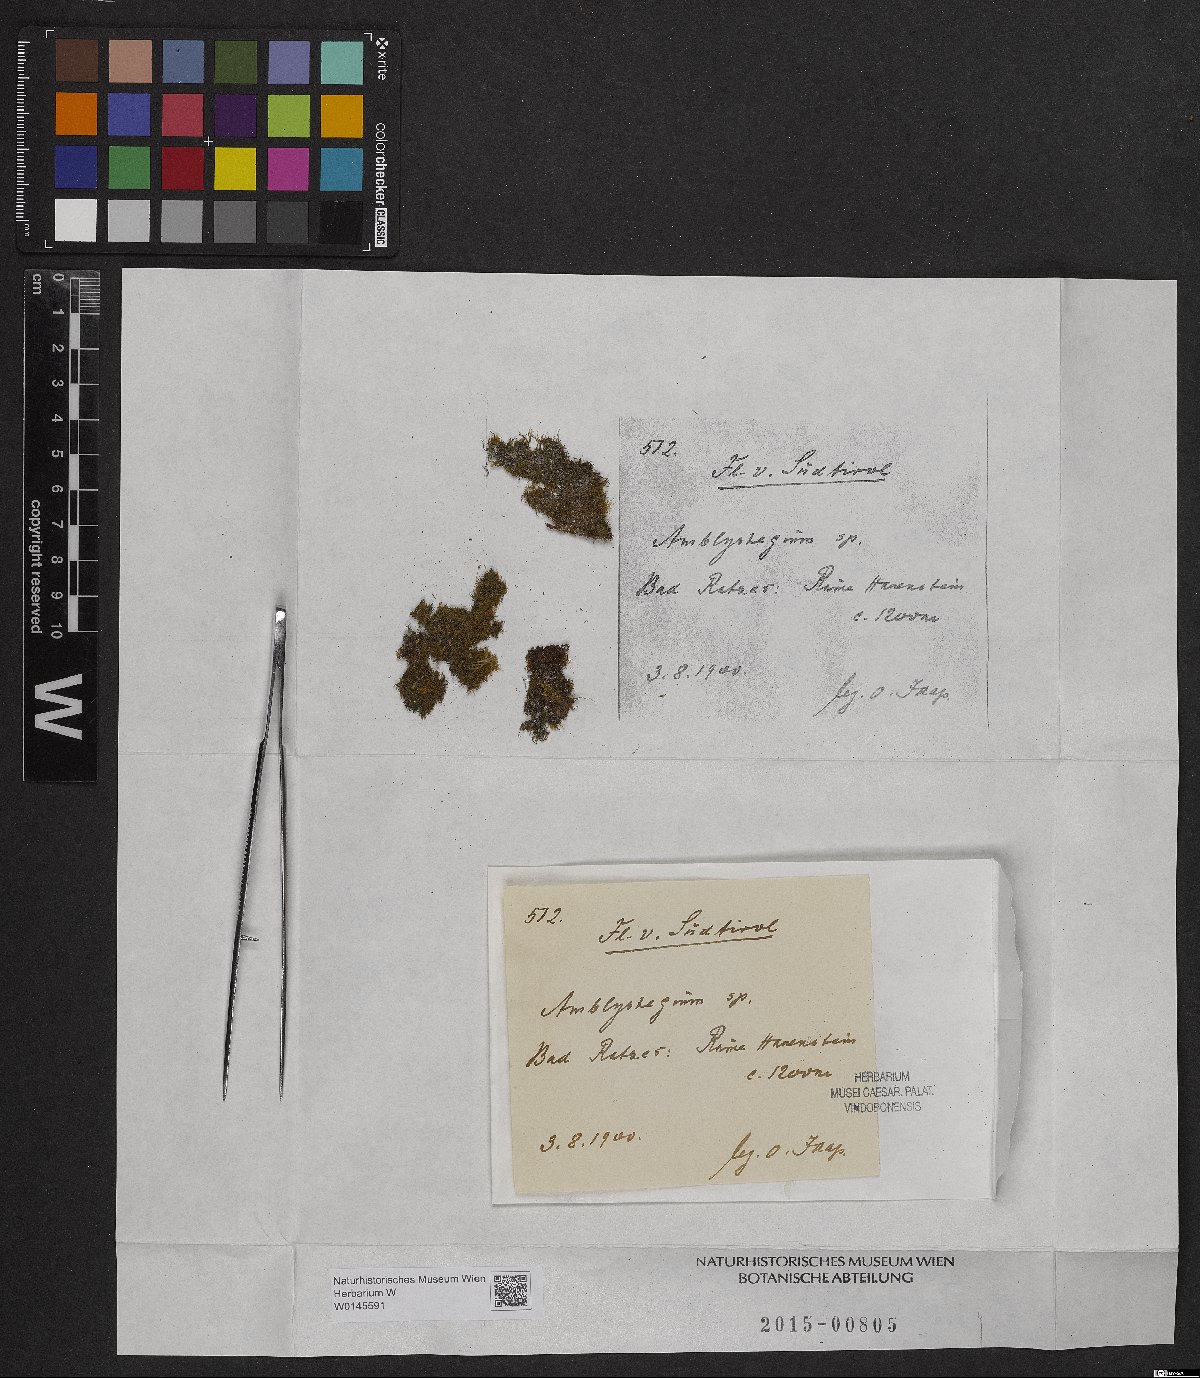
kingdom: Plantae
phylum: Bryophyta
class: Bryopsida
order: Hypnales
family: Amblystegiaceae
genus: Amblystegium
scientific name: Amblystegium
